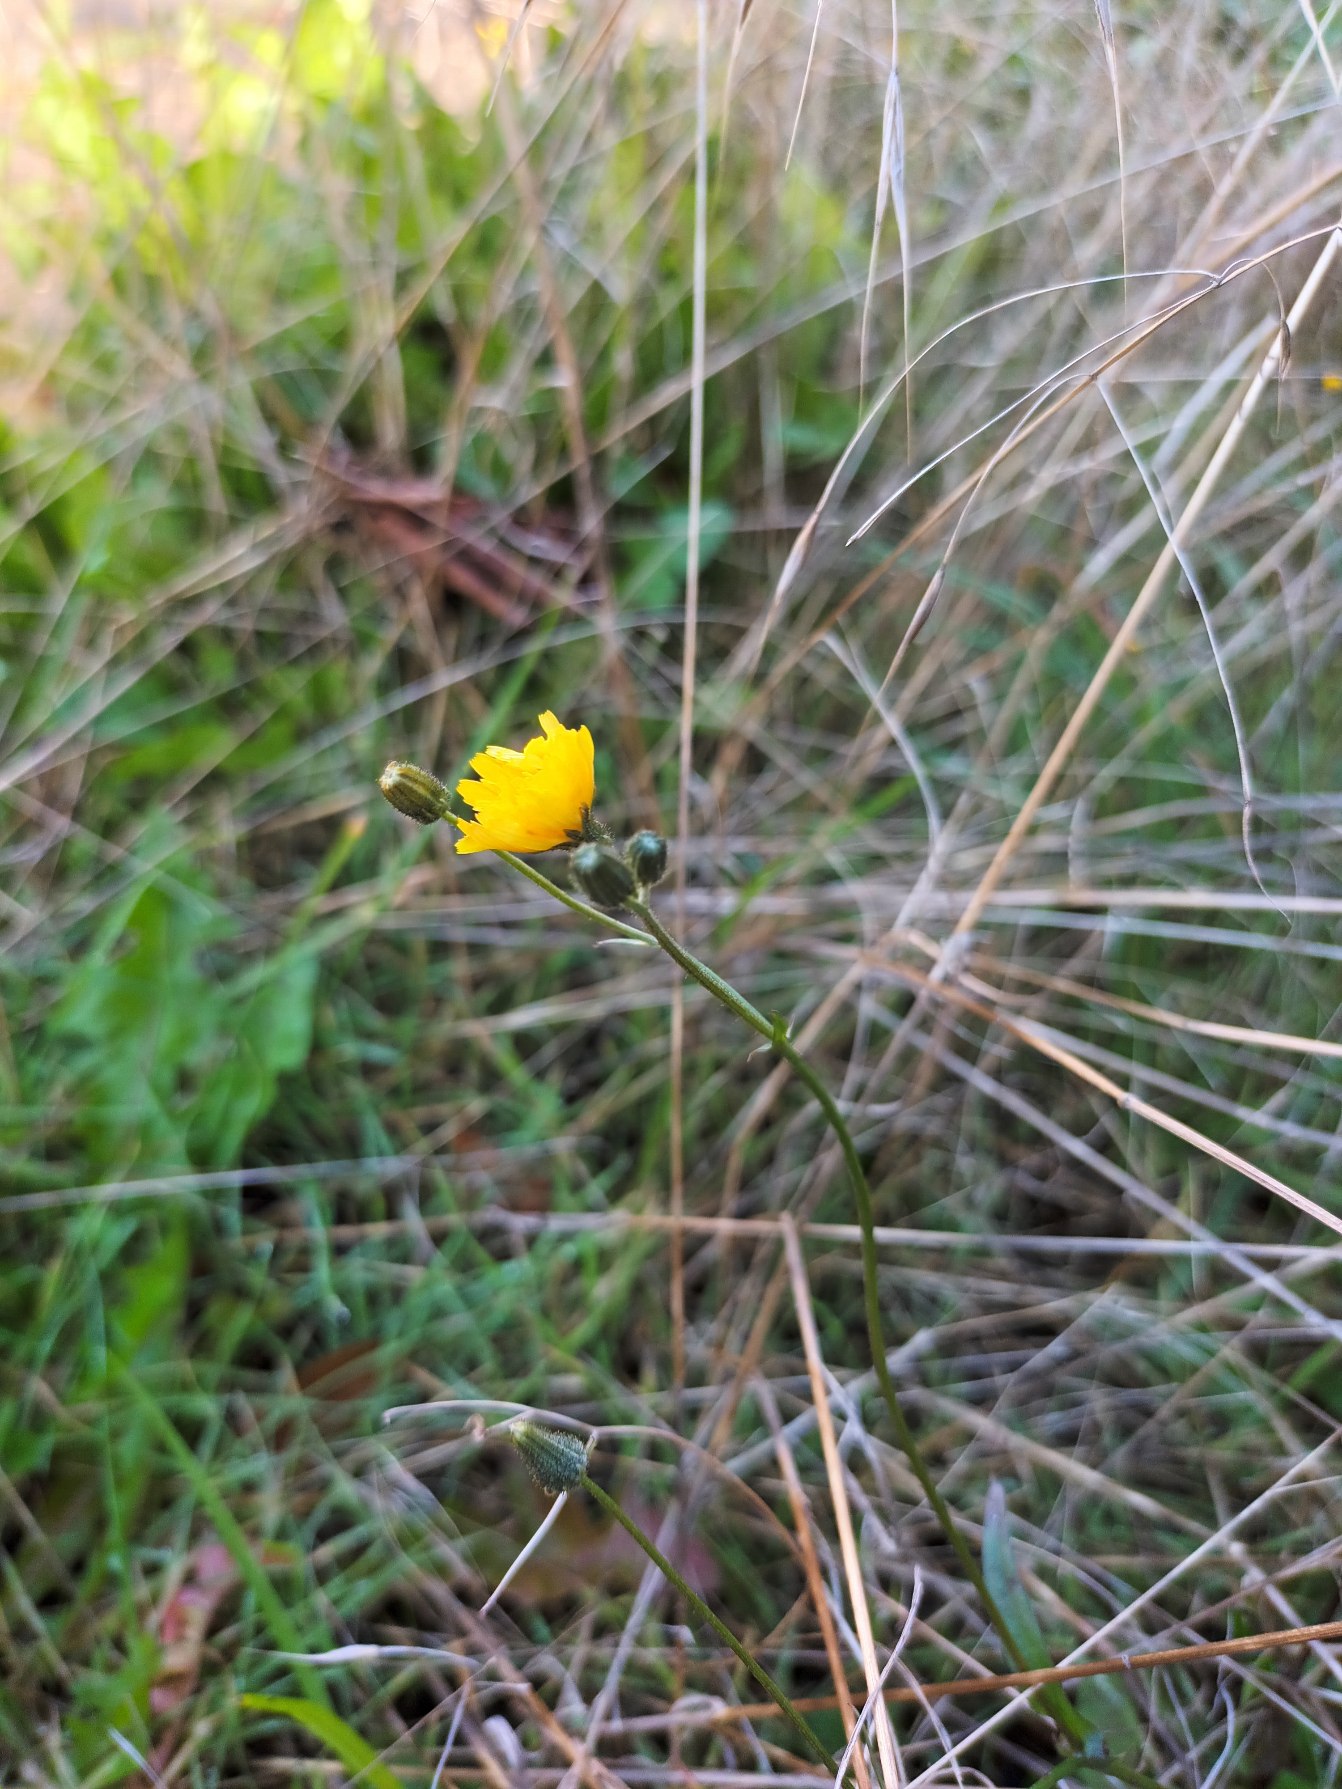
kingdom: Plantae
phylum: Tracheophyta
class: Magnoliopsida
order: Asterales
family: Asteraceae
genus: Crepis
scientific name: Crepis capillaris
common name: Grøn høgeskæg
